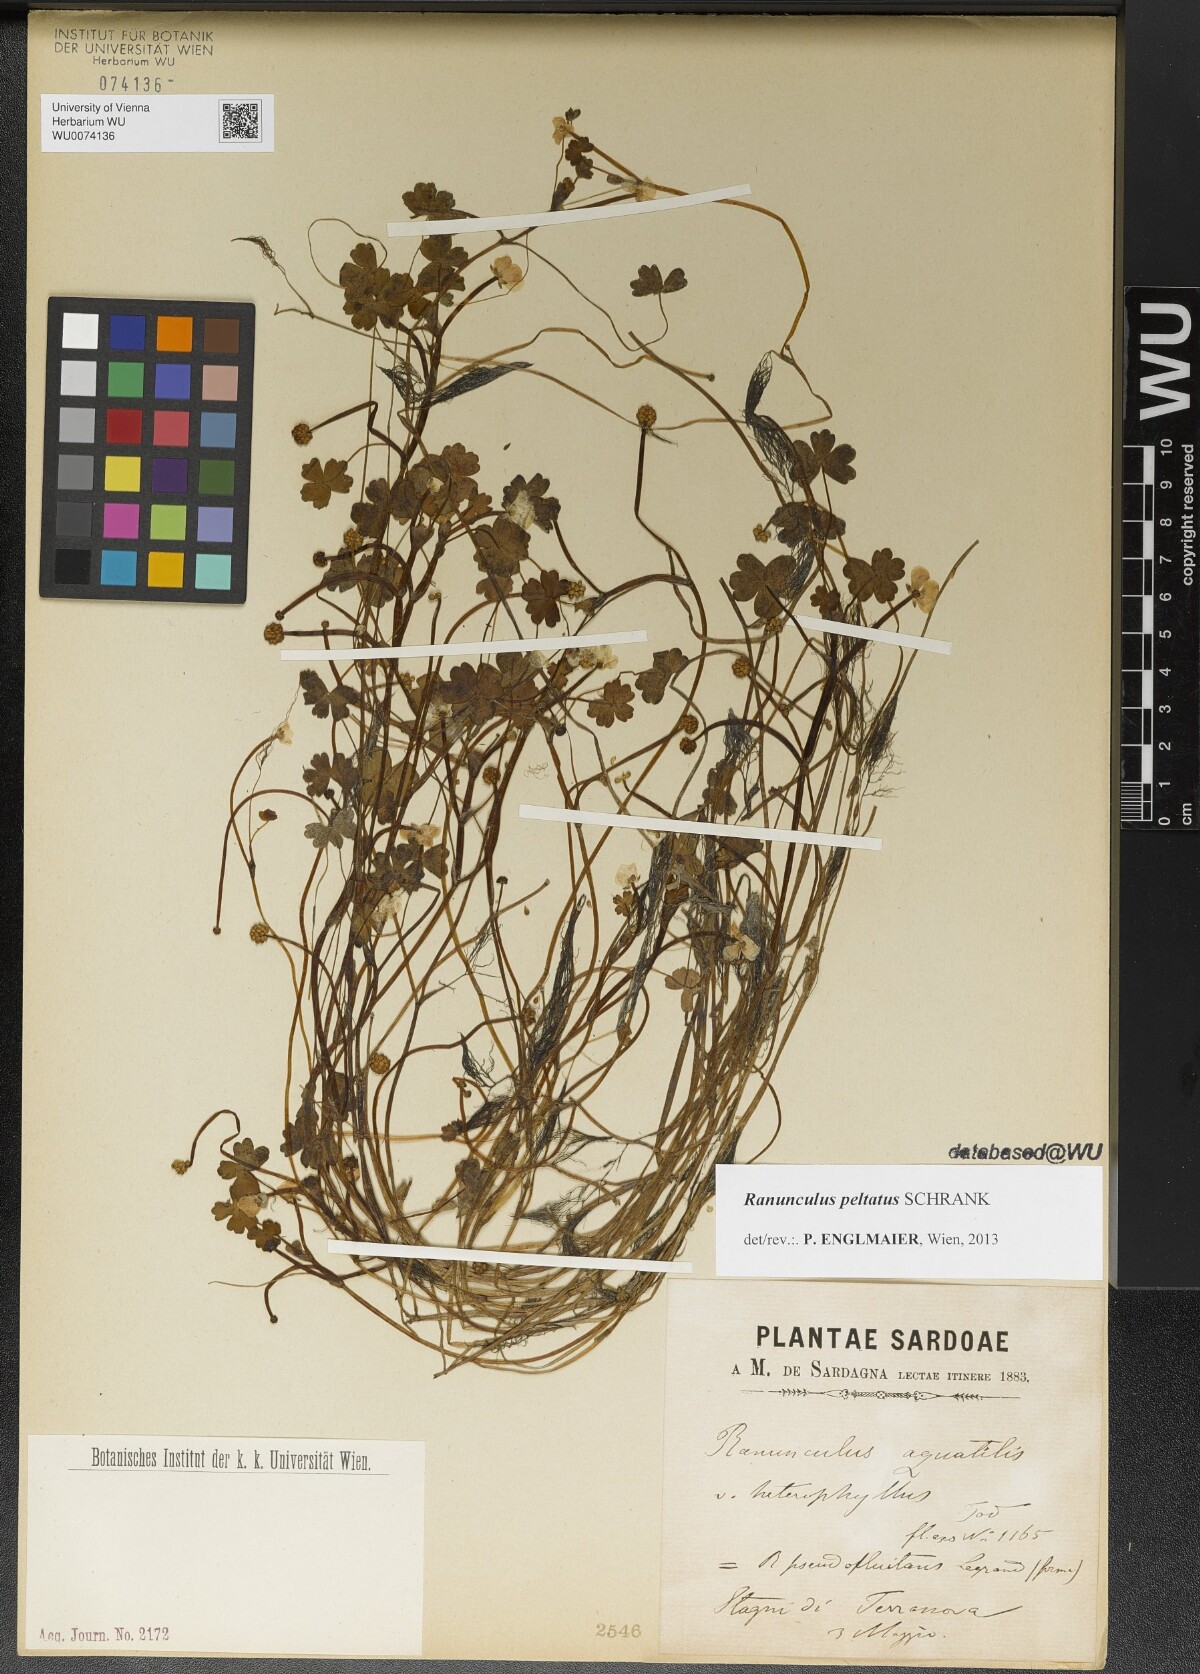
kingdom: Plantae
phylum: Tracheophyta
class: Magnoliopsida
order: Ranunculales
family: Ranunculaceae
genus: Ranunculus
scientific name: Ranunculus peltatus
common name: Pond water-crowfoot
